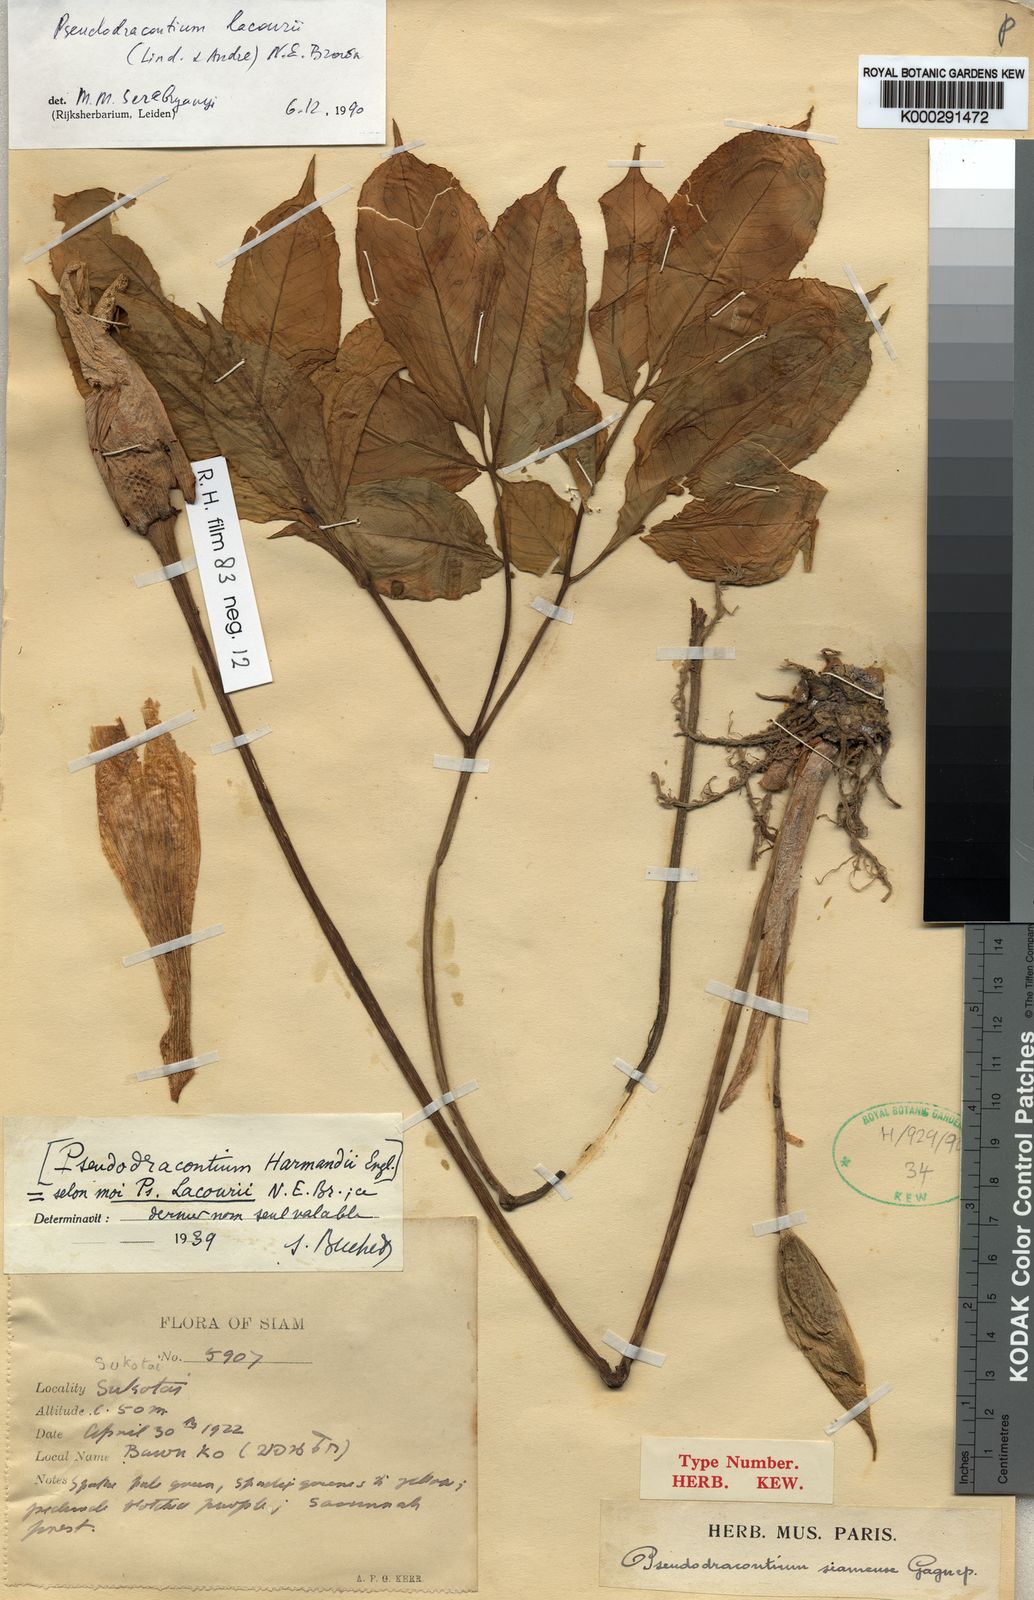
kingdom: Plantae
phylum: Tracheophyta
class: Liliopsida
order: Alismatales
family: Araceae
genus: Amorphophallus
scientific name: Amorphophallus
